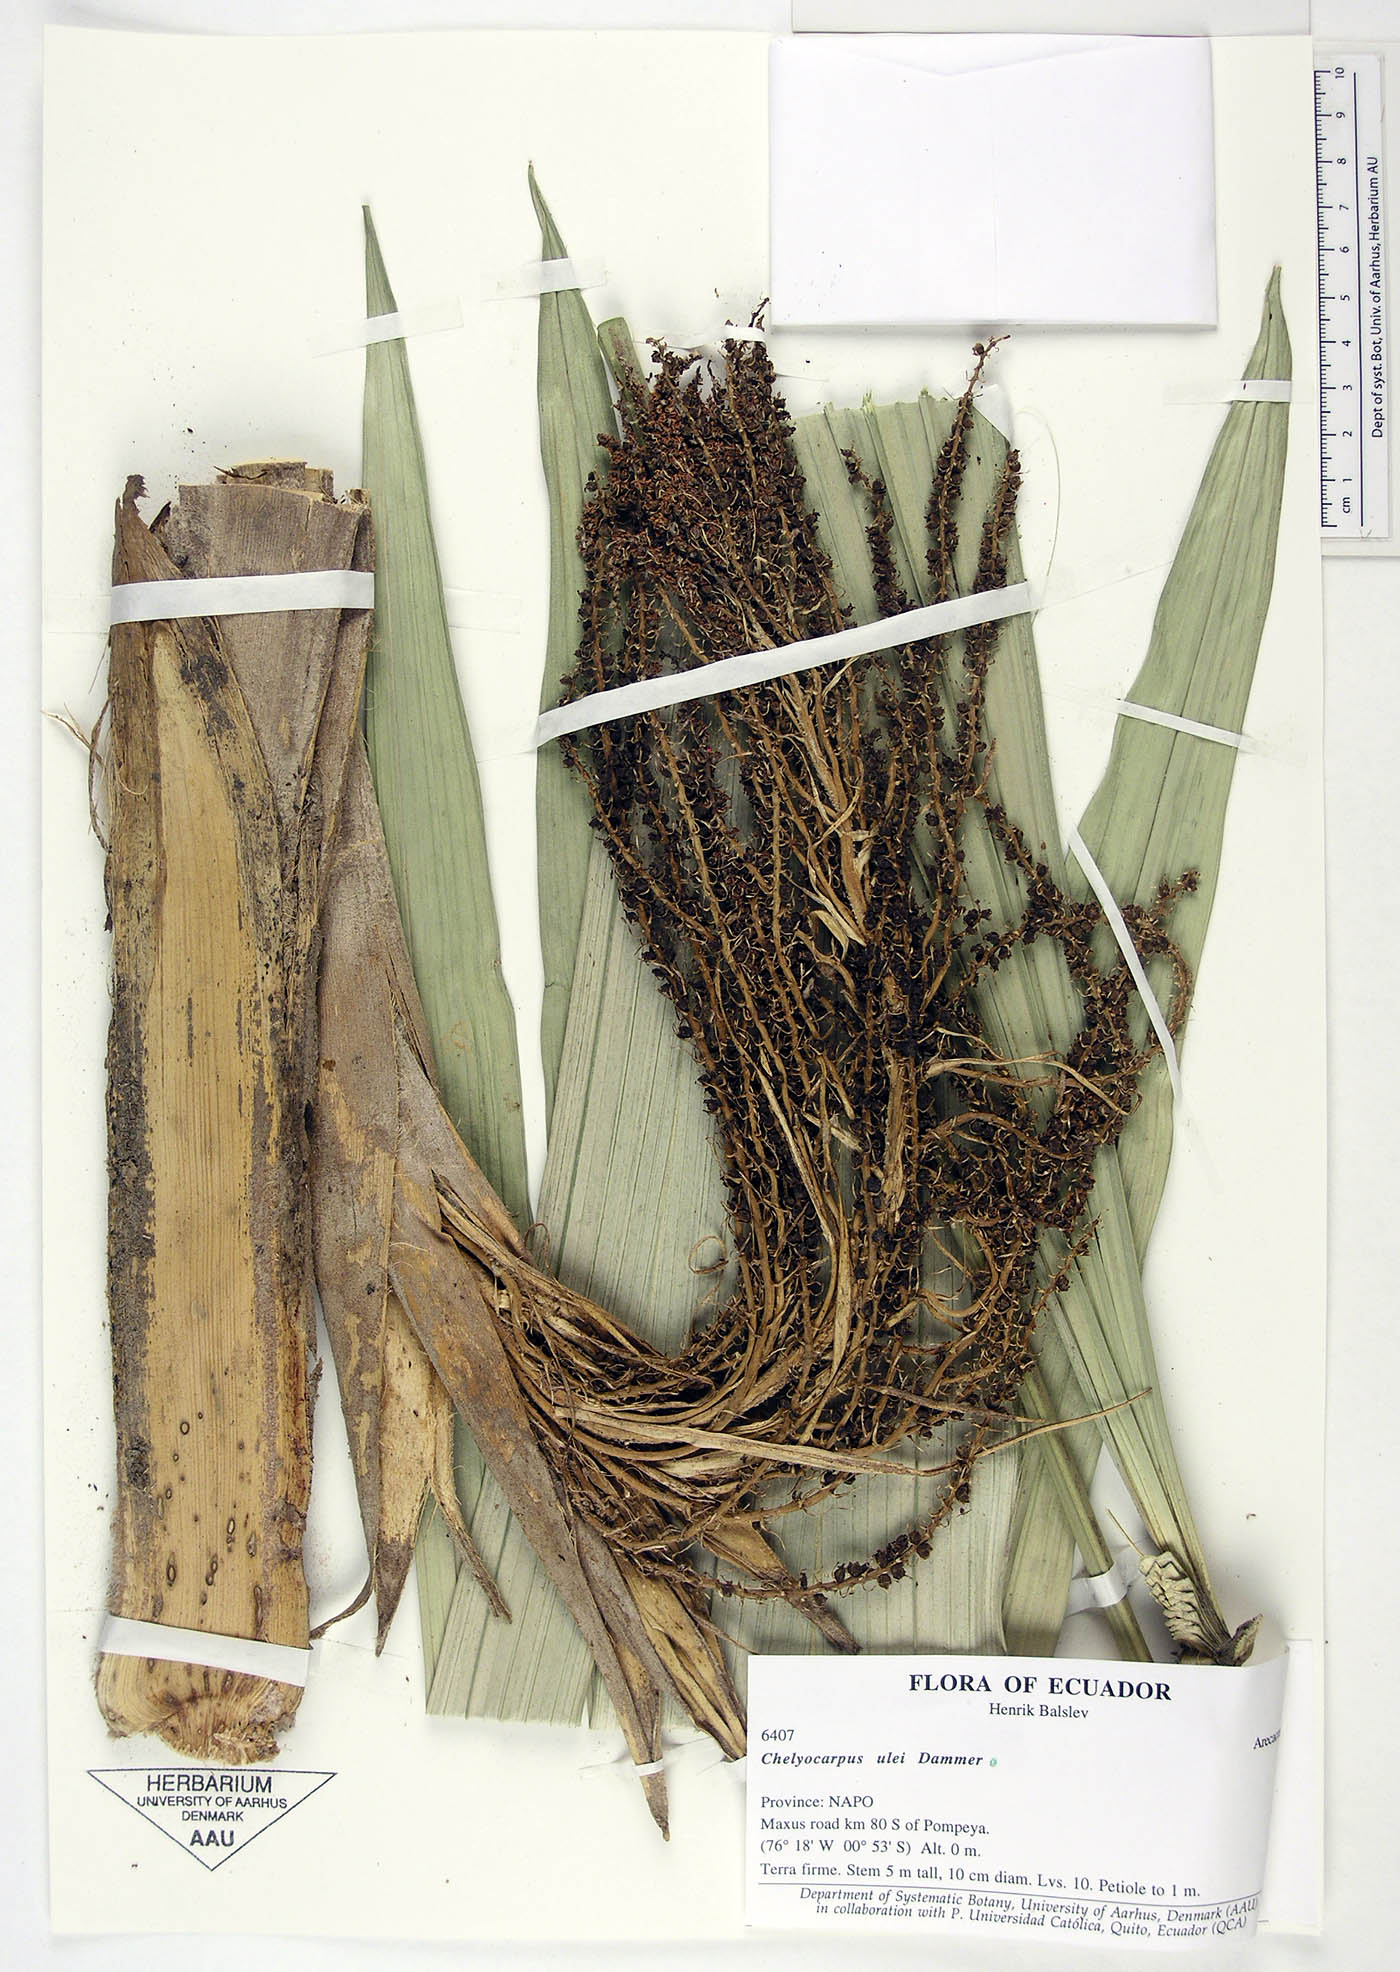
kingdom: Plantae
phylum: Tracheophyta
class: Liliopsida
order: Arecales
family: Arecaceae
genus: Chelyocarpus
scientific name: Chelyocarpus ulei
